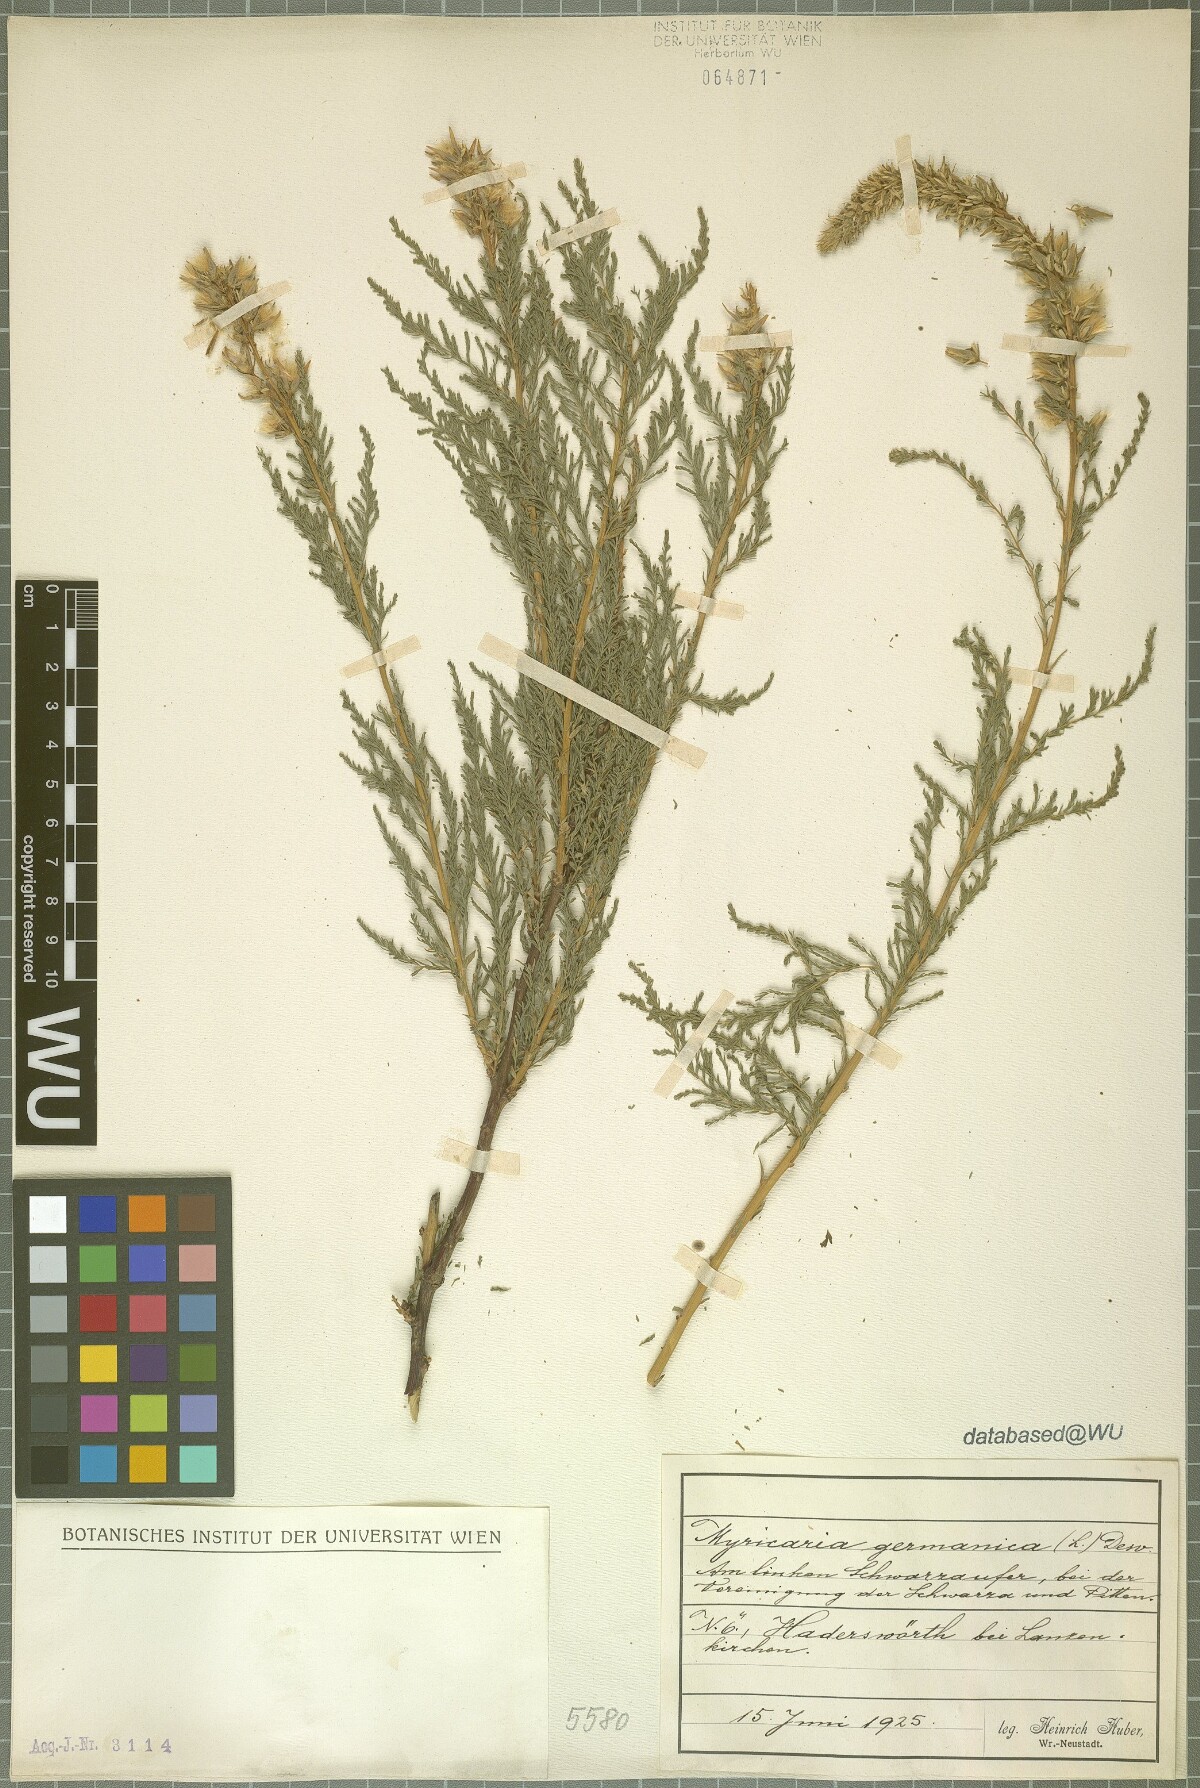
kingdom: Plantae
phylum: Tracheophyta
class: Magnoliopsida
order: Caryophyllales
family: Tamaricaceae
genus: Myricaria
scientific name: Myricaria germanica
